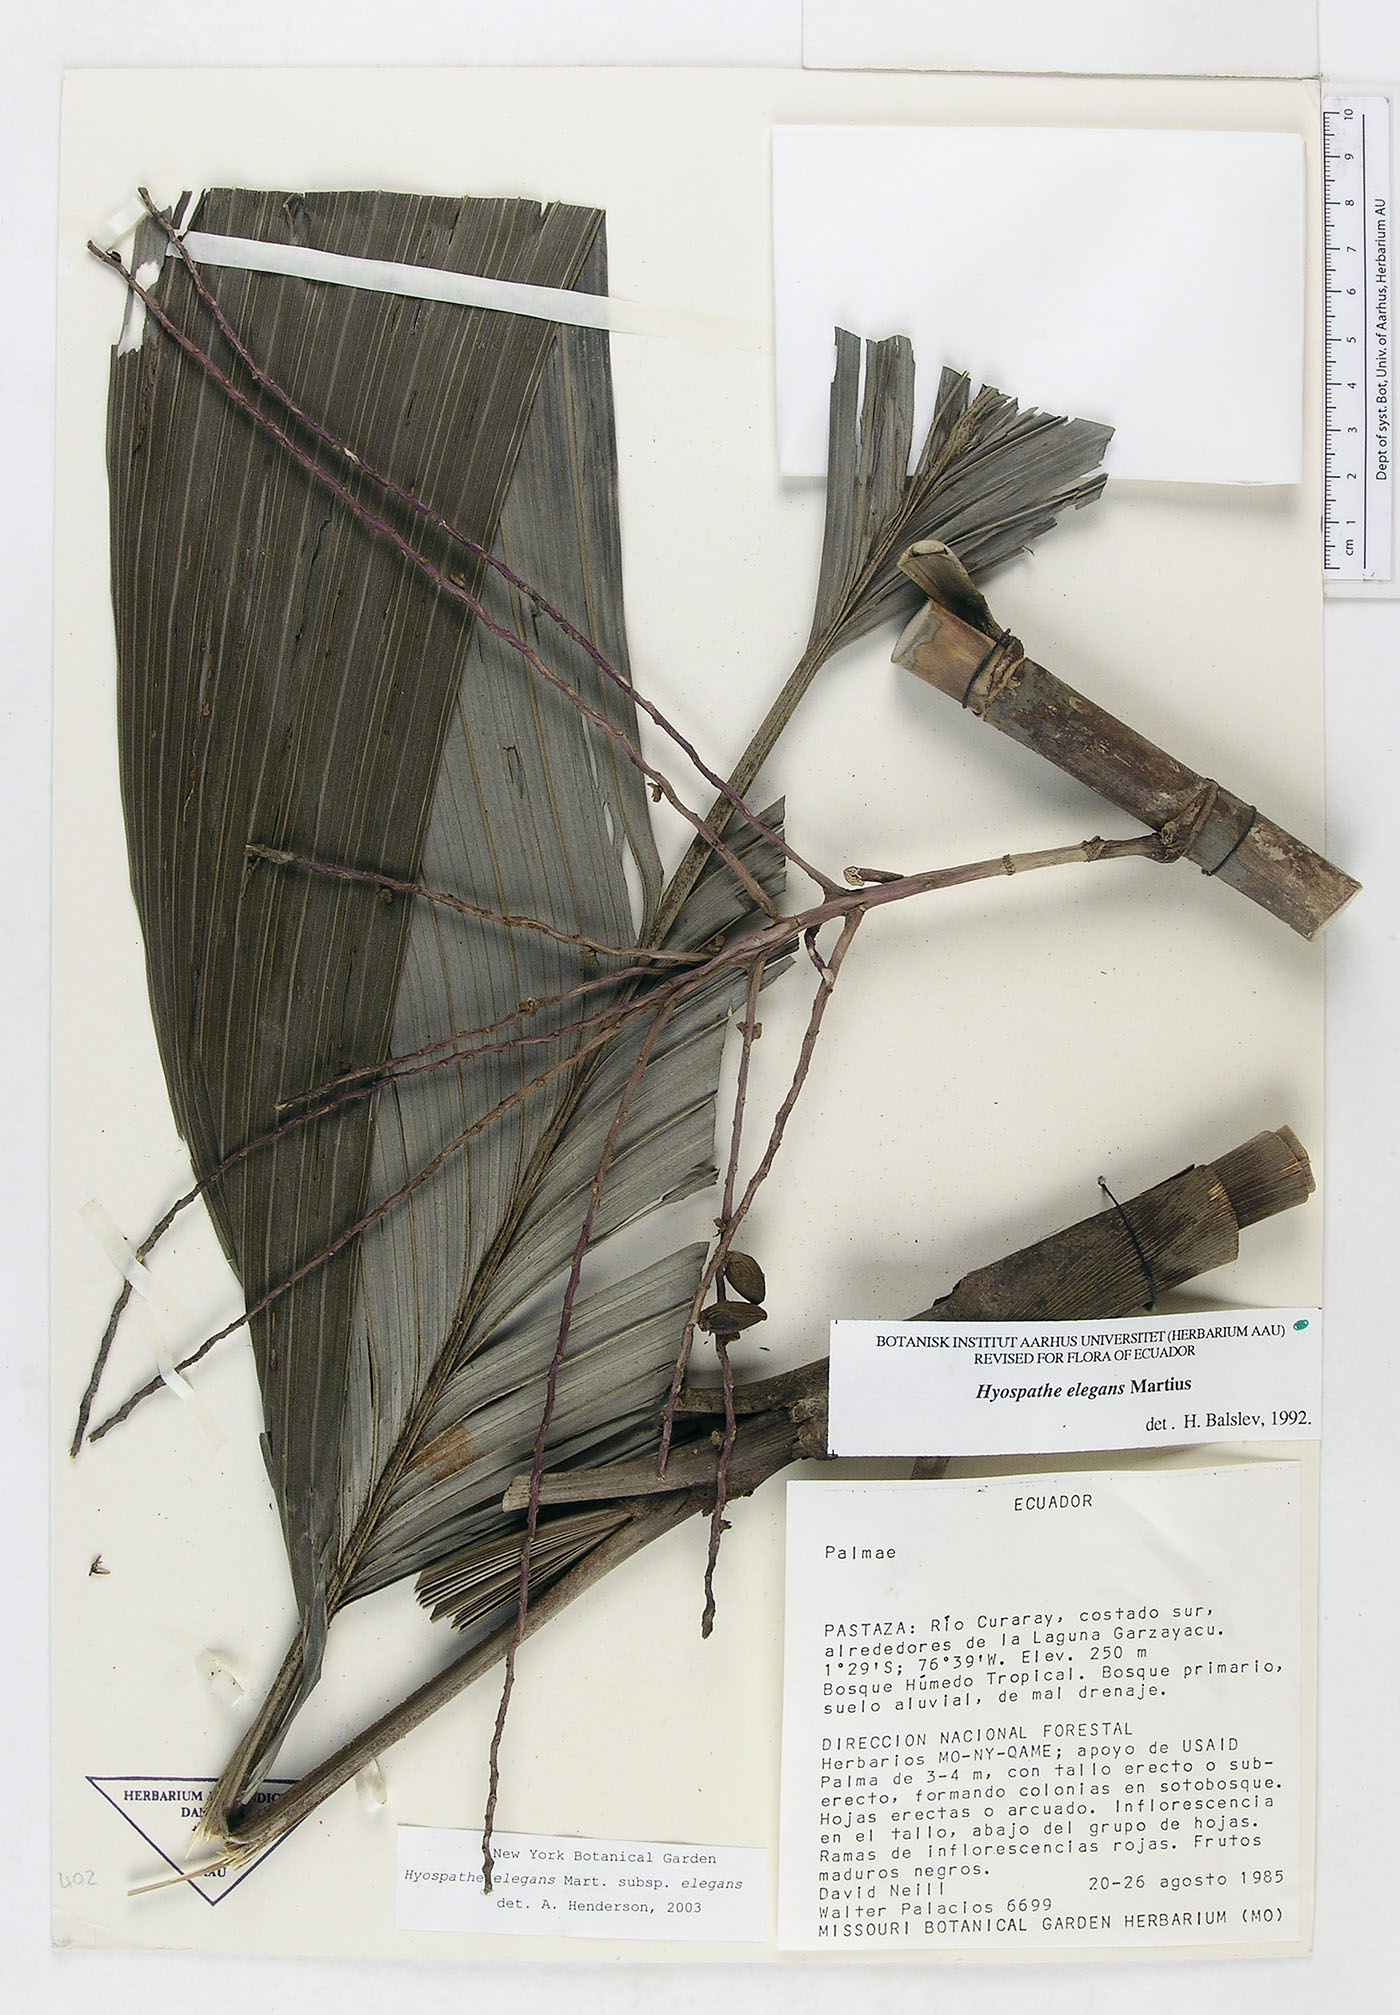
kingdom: Plantae
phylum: Tracheophyta
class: Liliopsida
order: Arecales
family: Arecaceae
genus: Hyospathe
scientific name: Hyospathe elegans
